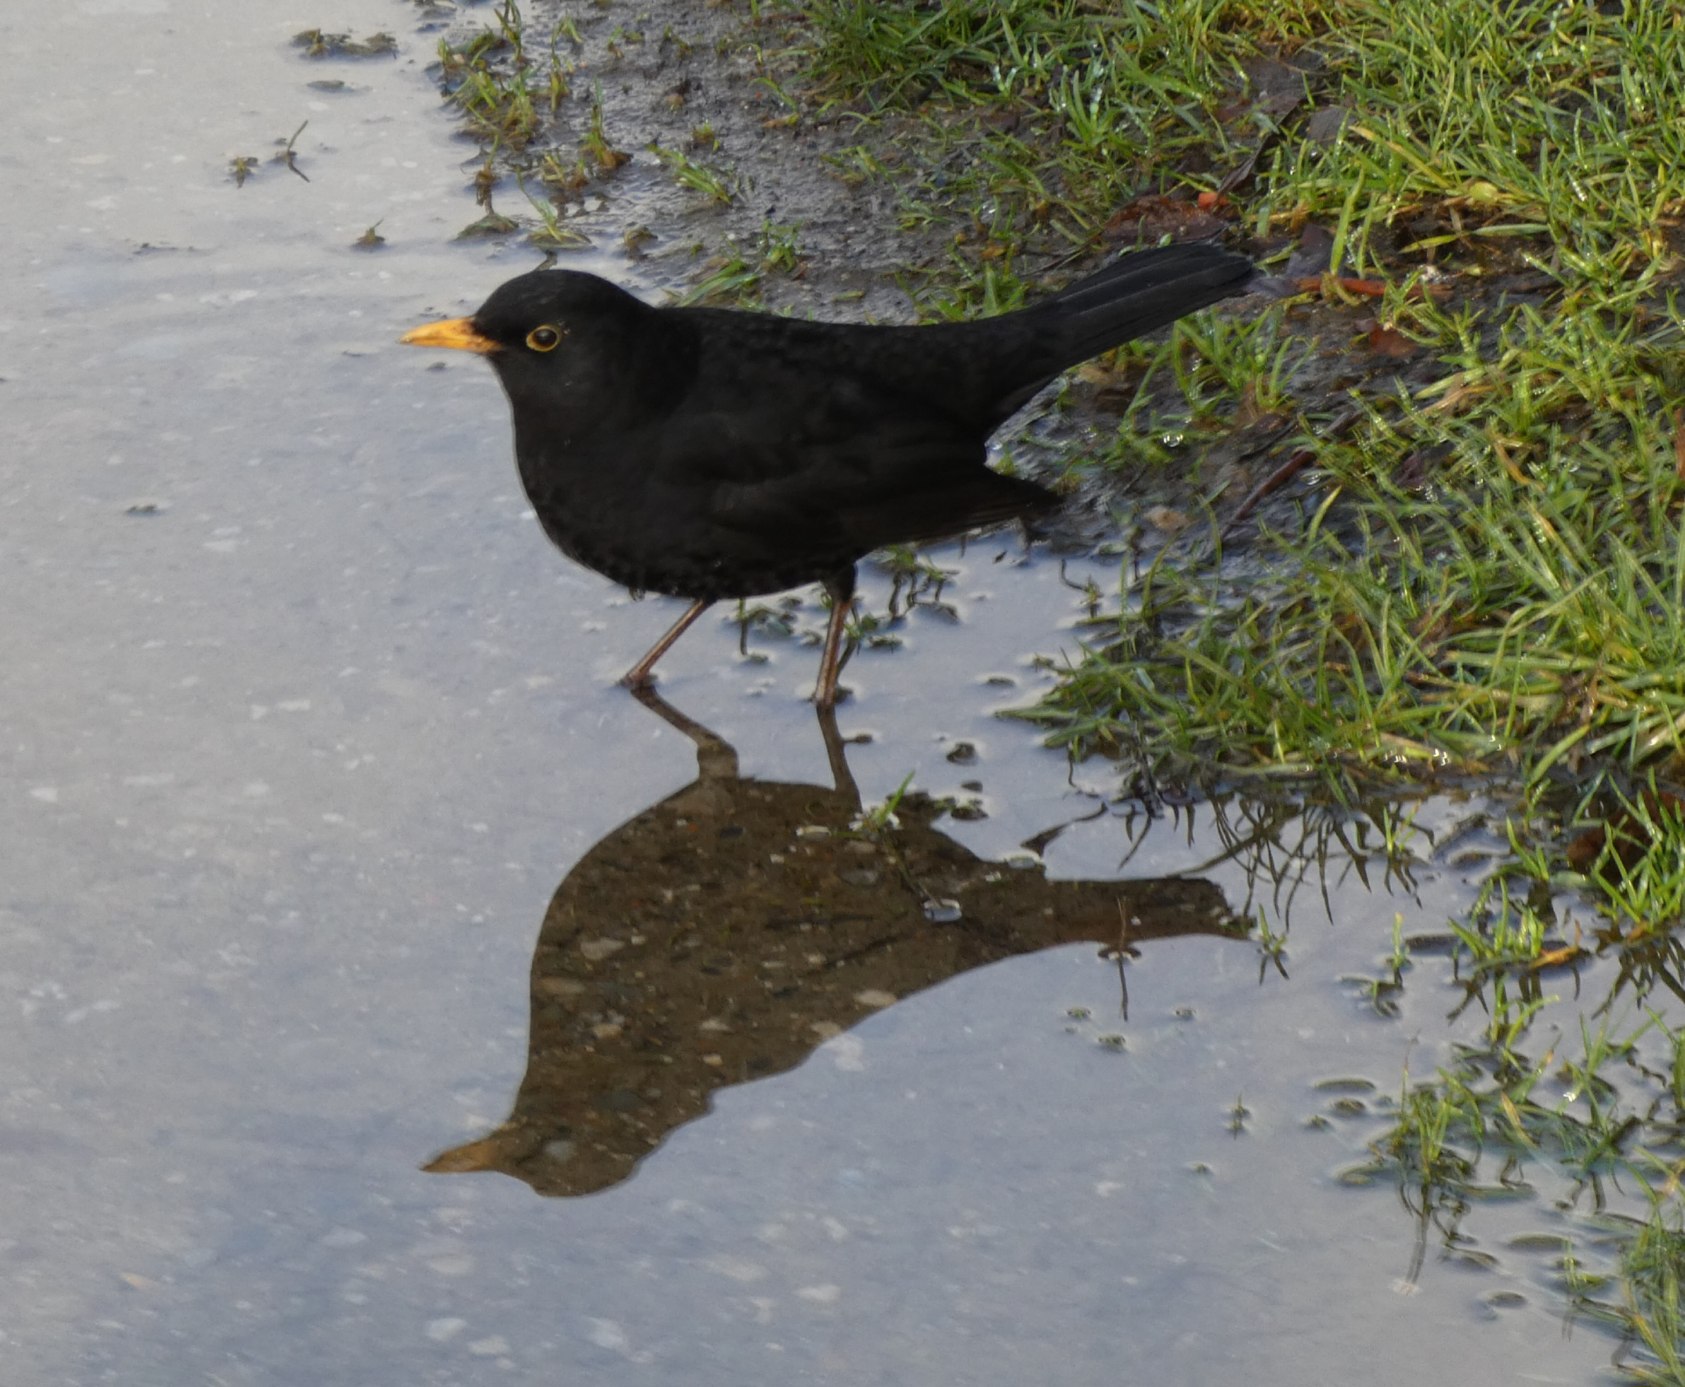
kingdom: Animalia
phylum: Chordata
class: Aves
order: Passeriformes
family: Turdidae
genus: Turdus
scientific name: Turdus merula
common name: Solsort
